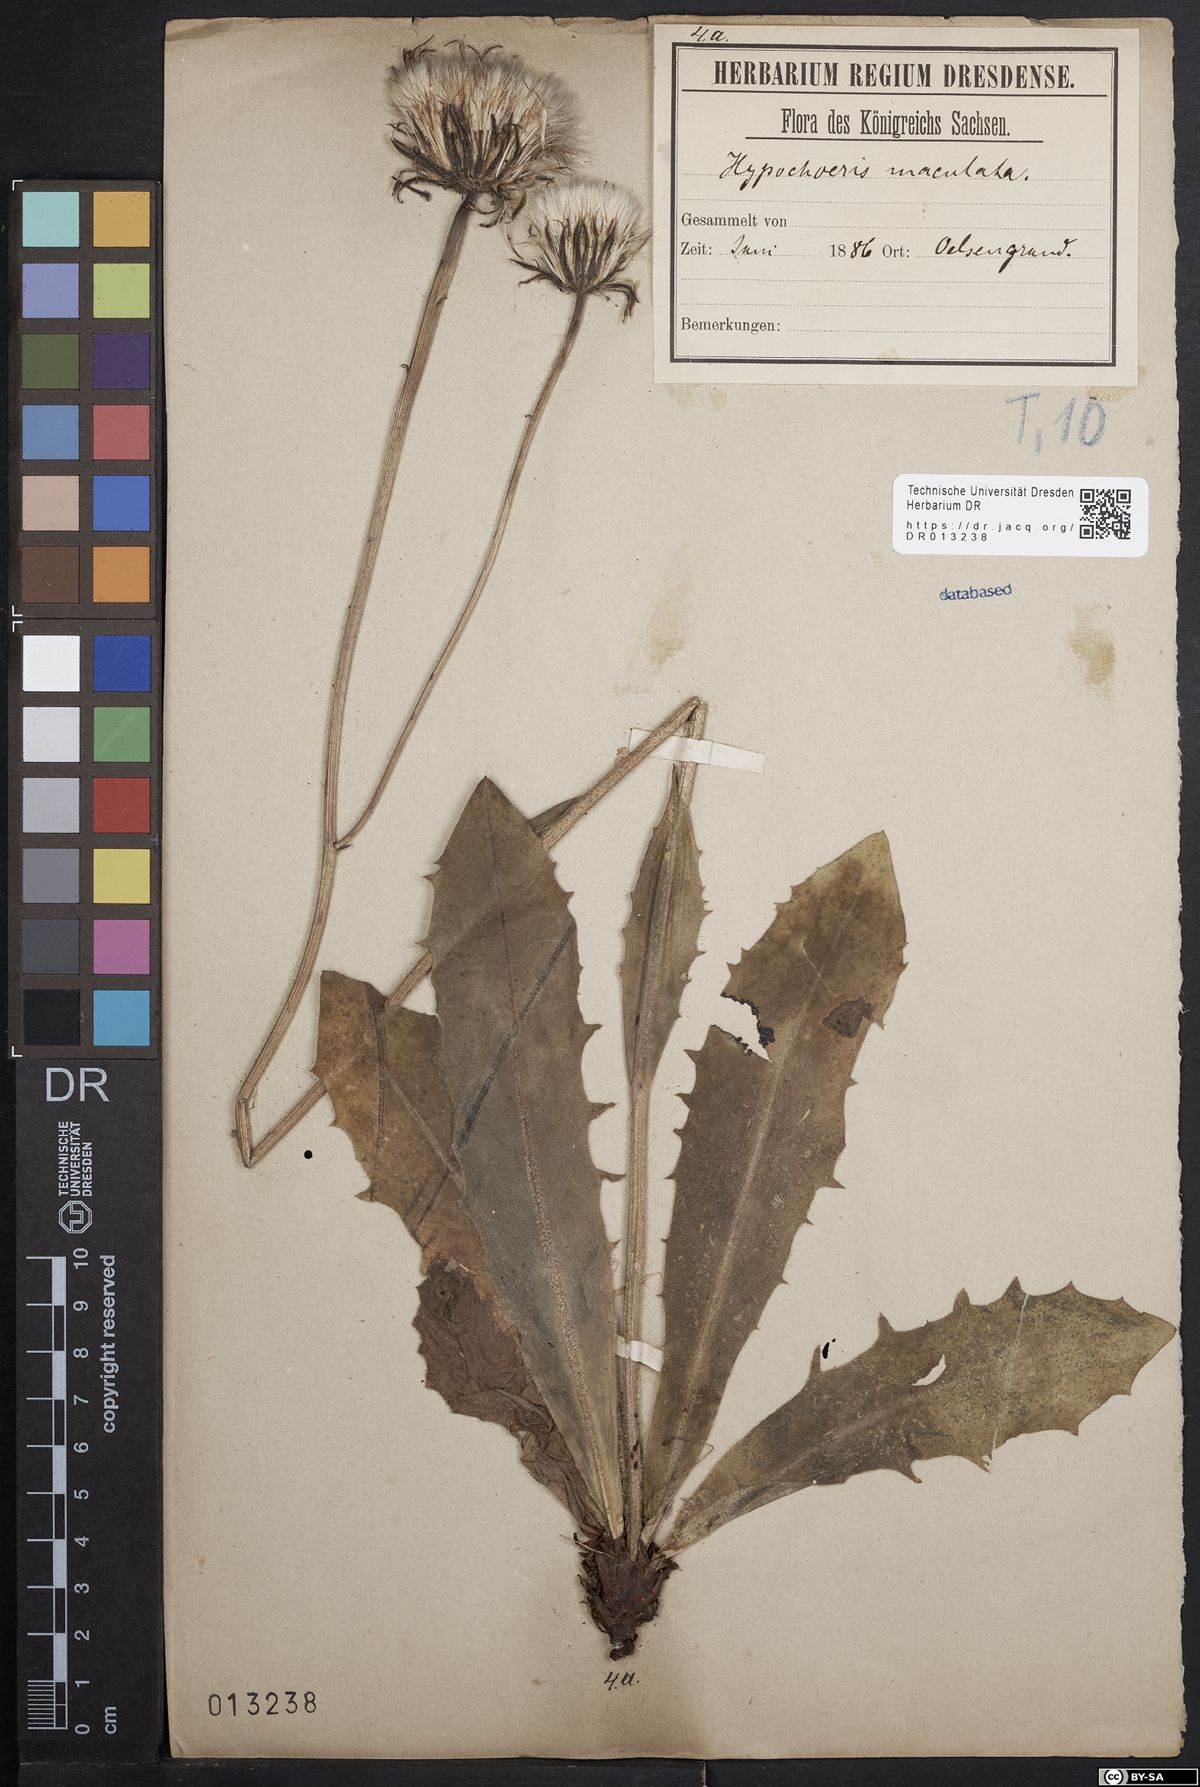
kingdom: Plantae
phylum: Tracheophyta
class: Magnoliopsida
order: Asterales
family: Asteraceae
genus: Trommsdorffia
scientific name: Trommsdorffia maculata
